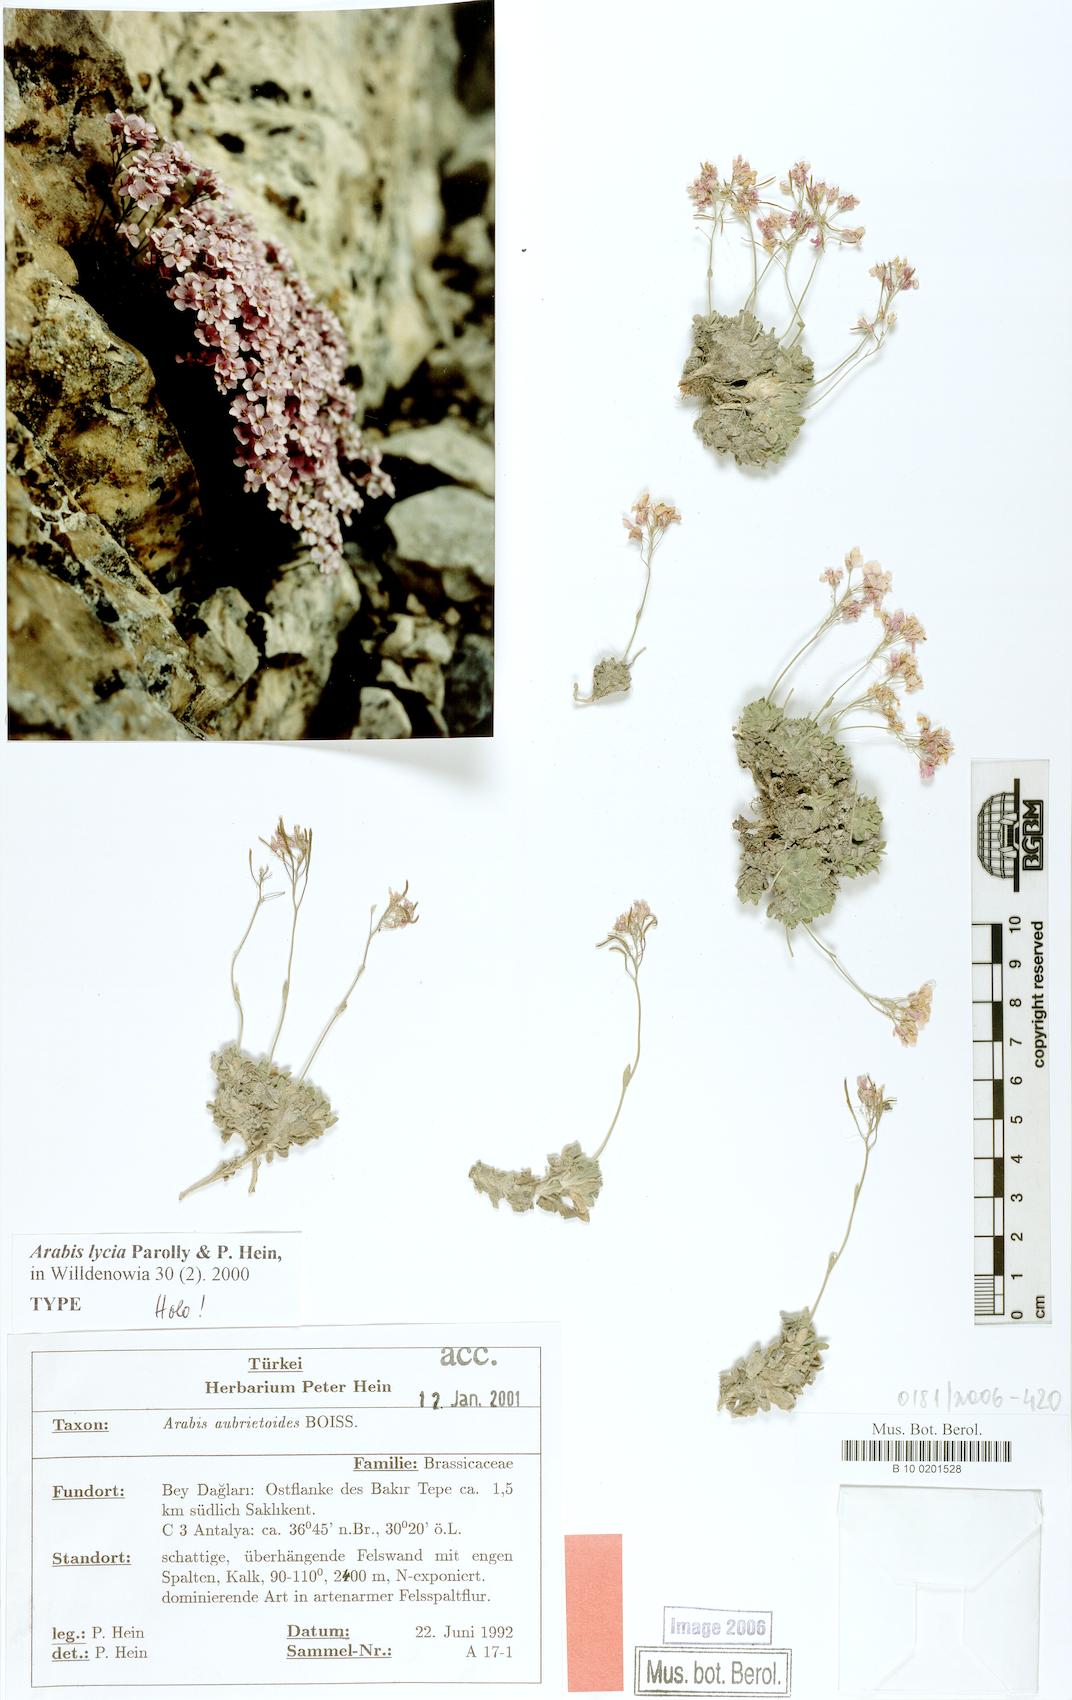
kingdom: Plantae
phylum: Tracheophyta
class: Magnoliopsida
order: Brassicales
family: Brassicaceae
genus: Arabis
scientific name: Arabis lycia
